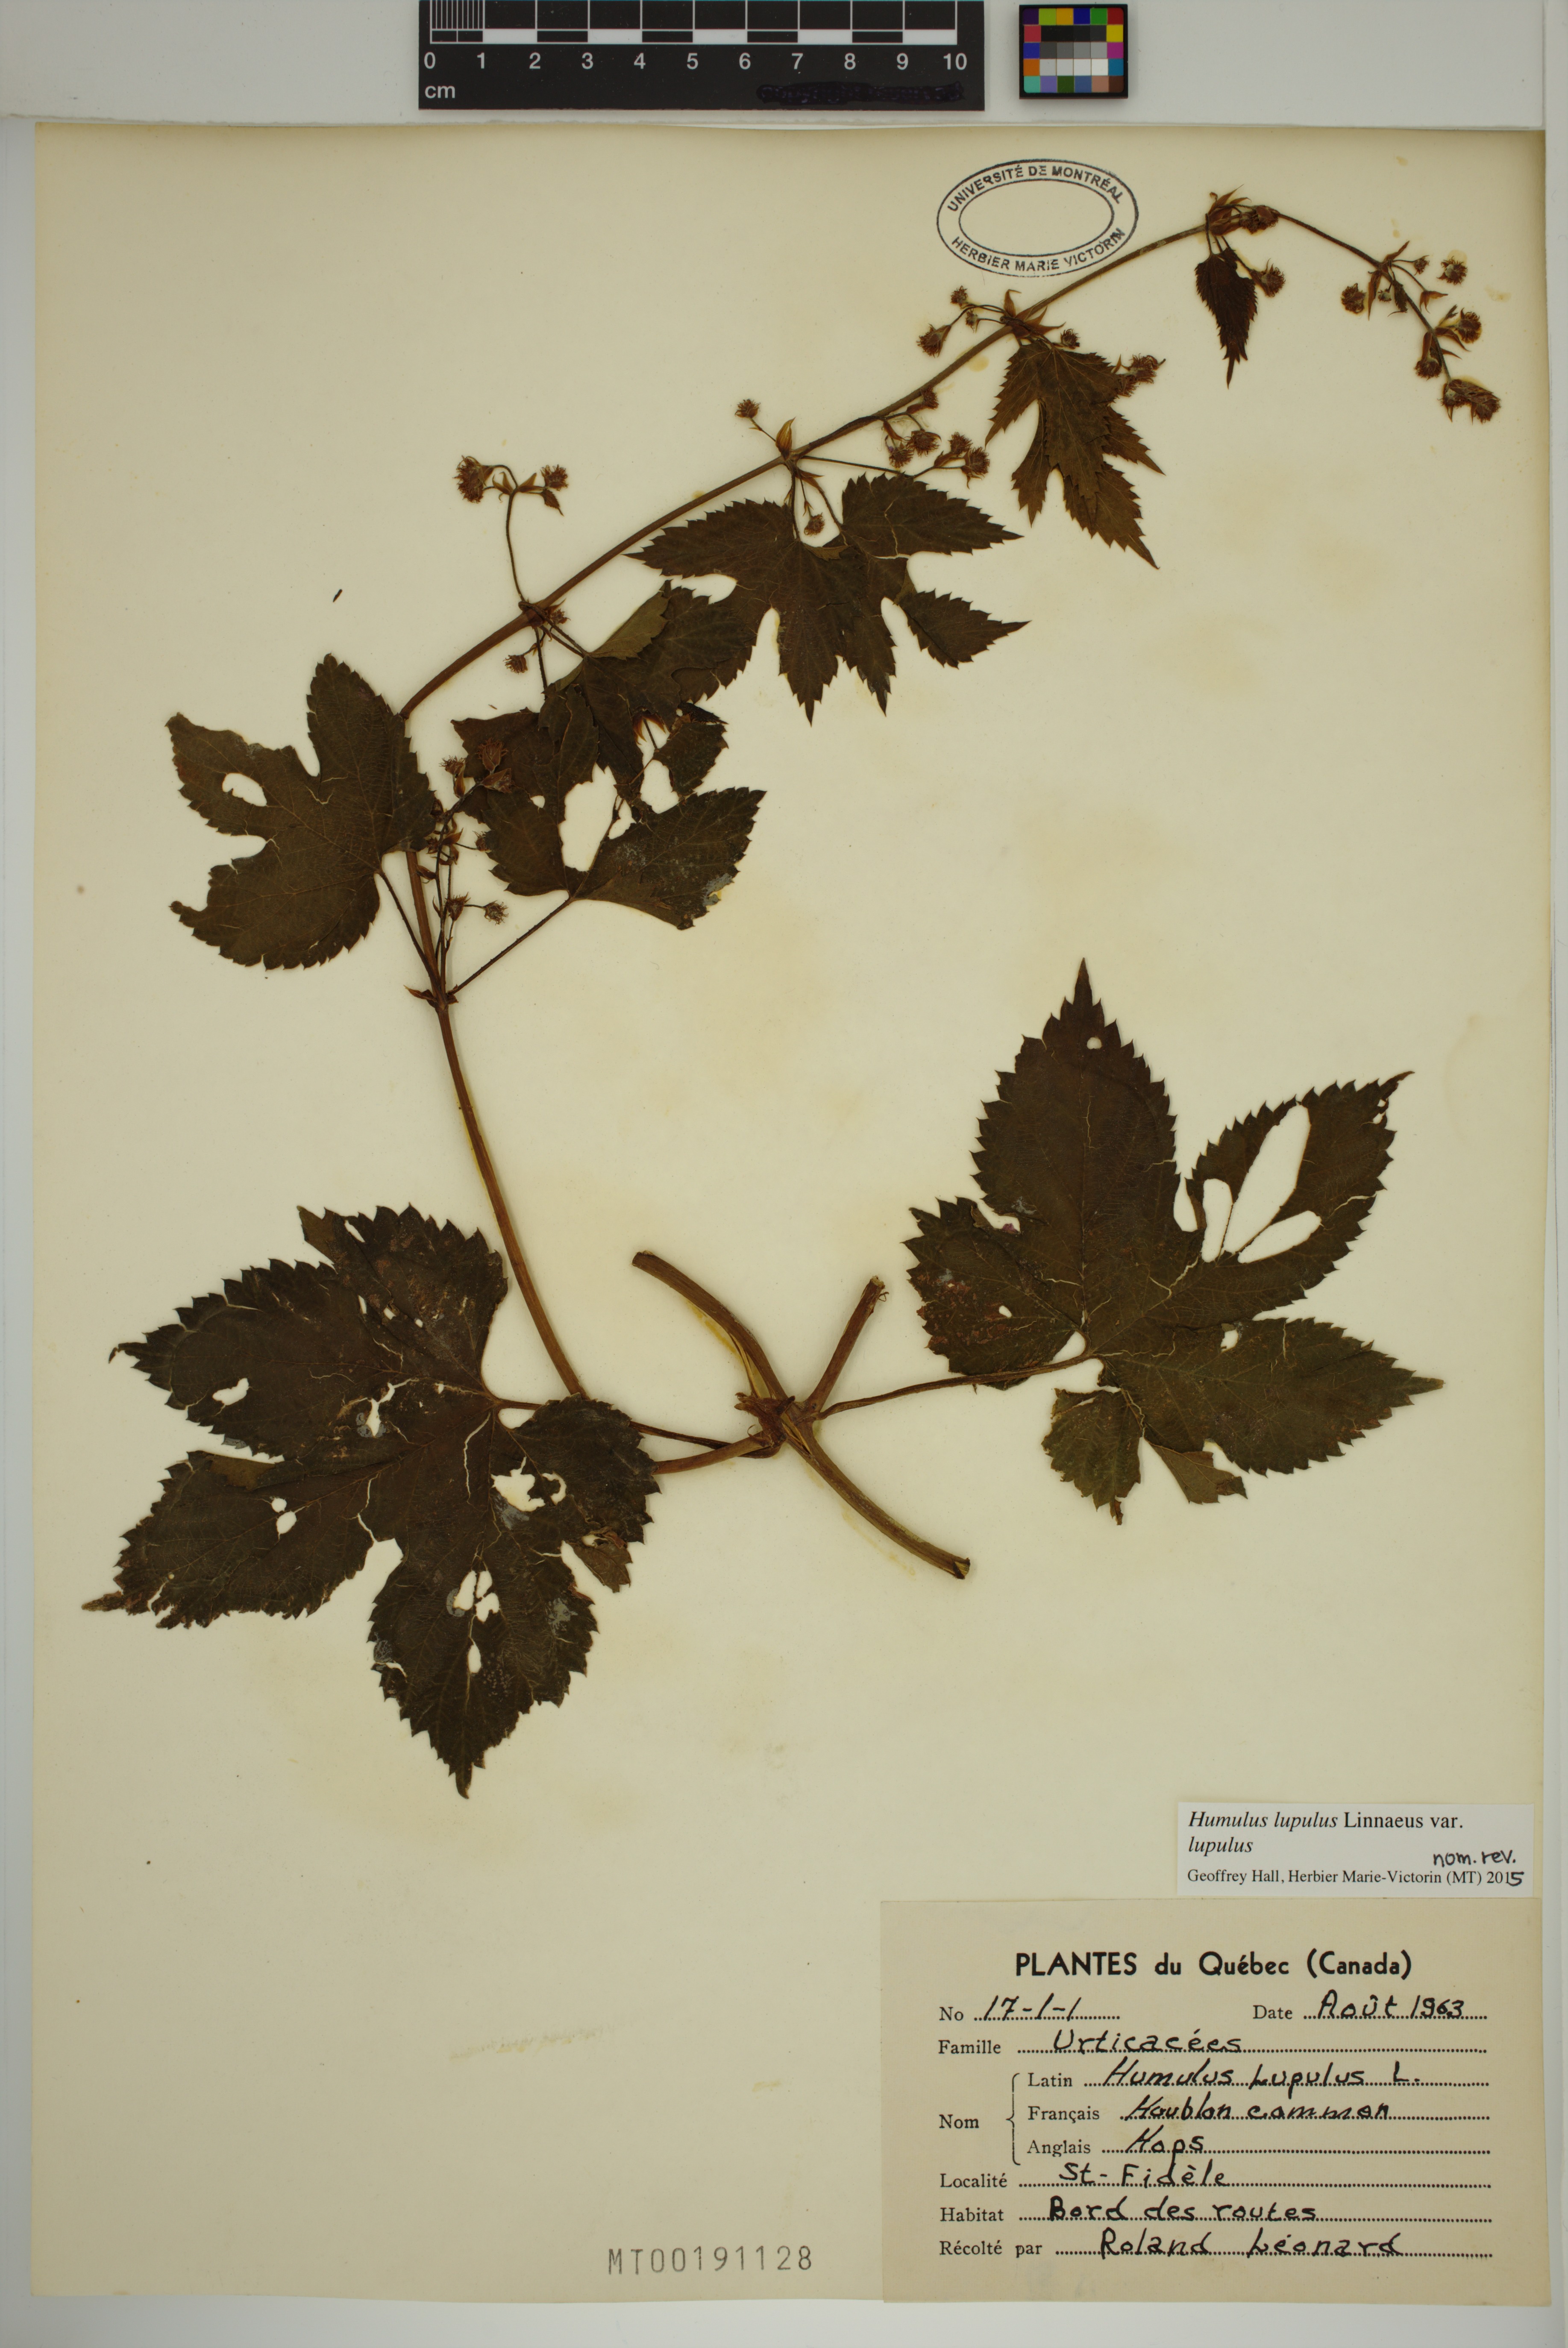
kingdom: Plantae
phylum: Tracheophyta
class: Magnoliopsida
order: Rosales
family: Cannabaceae
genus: Humulus
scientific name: Humulus lupulus
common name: Hop
